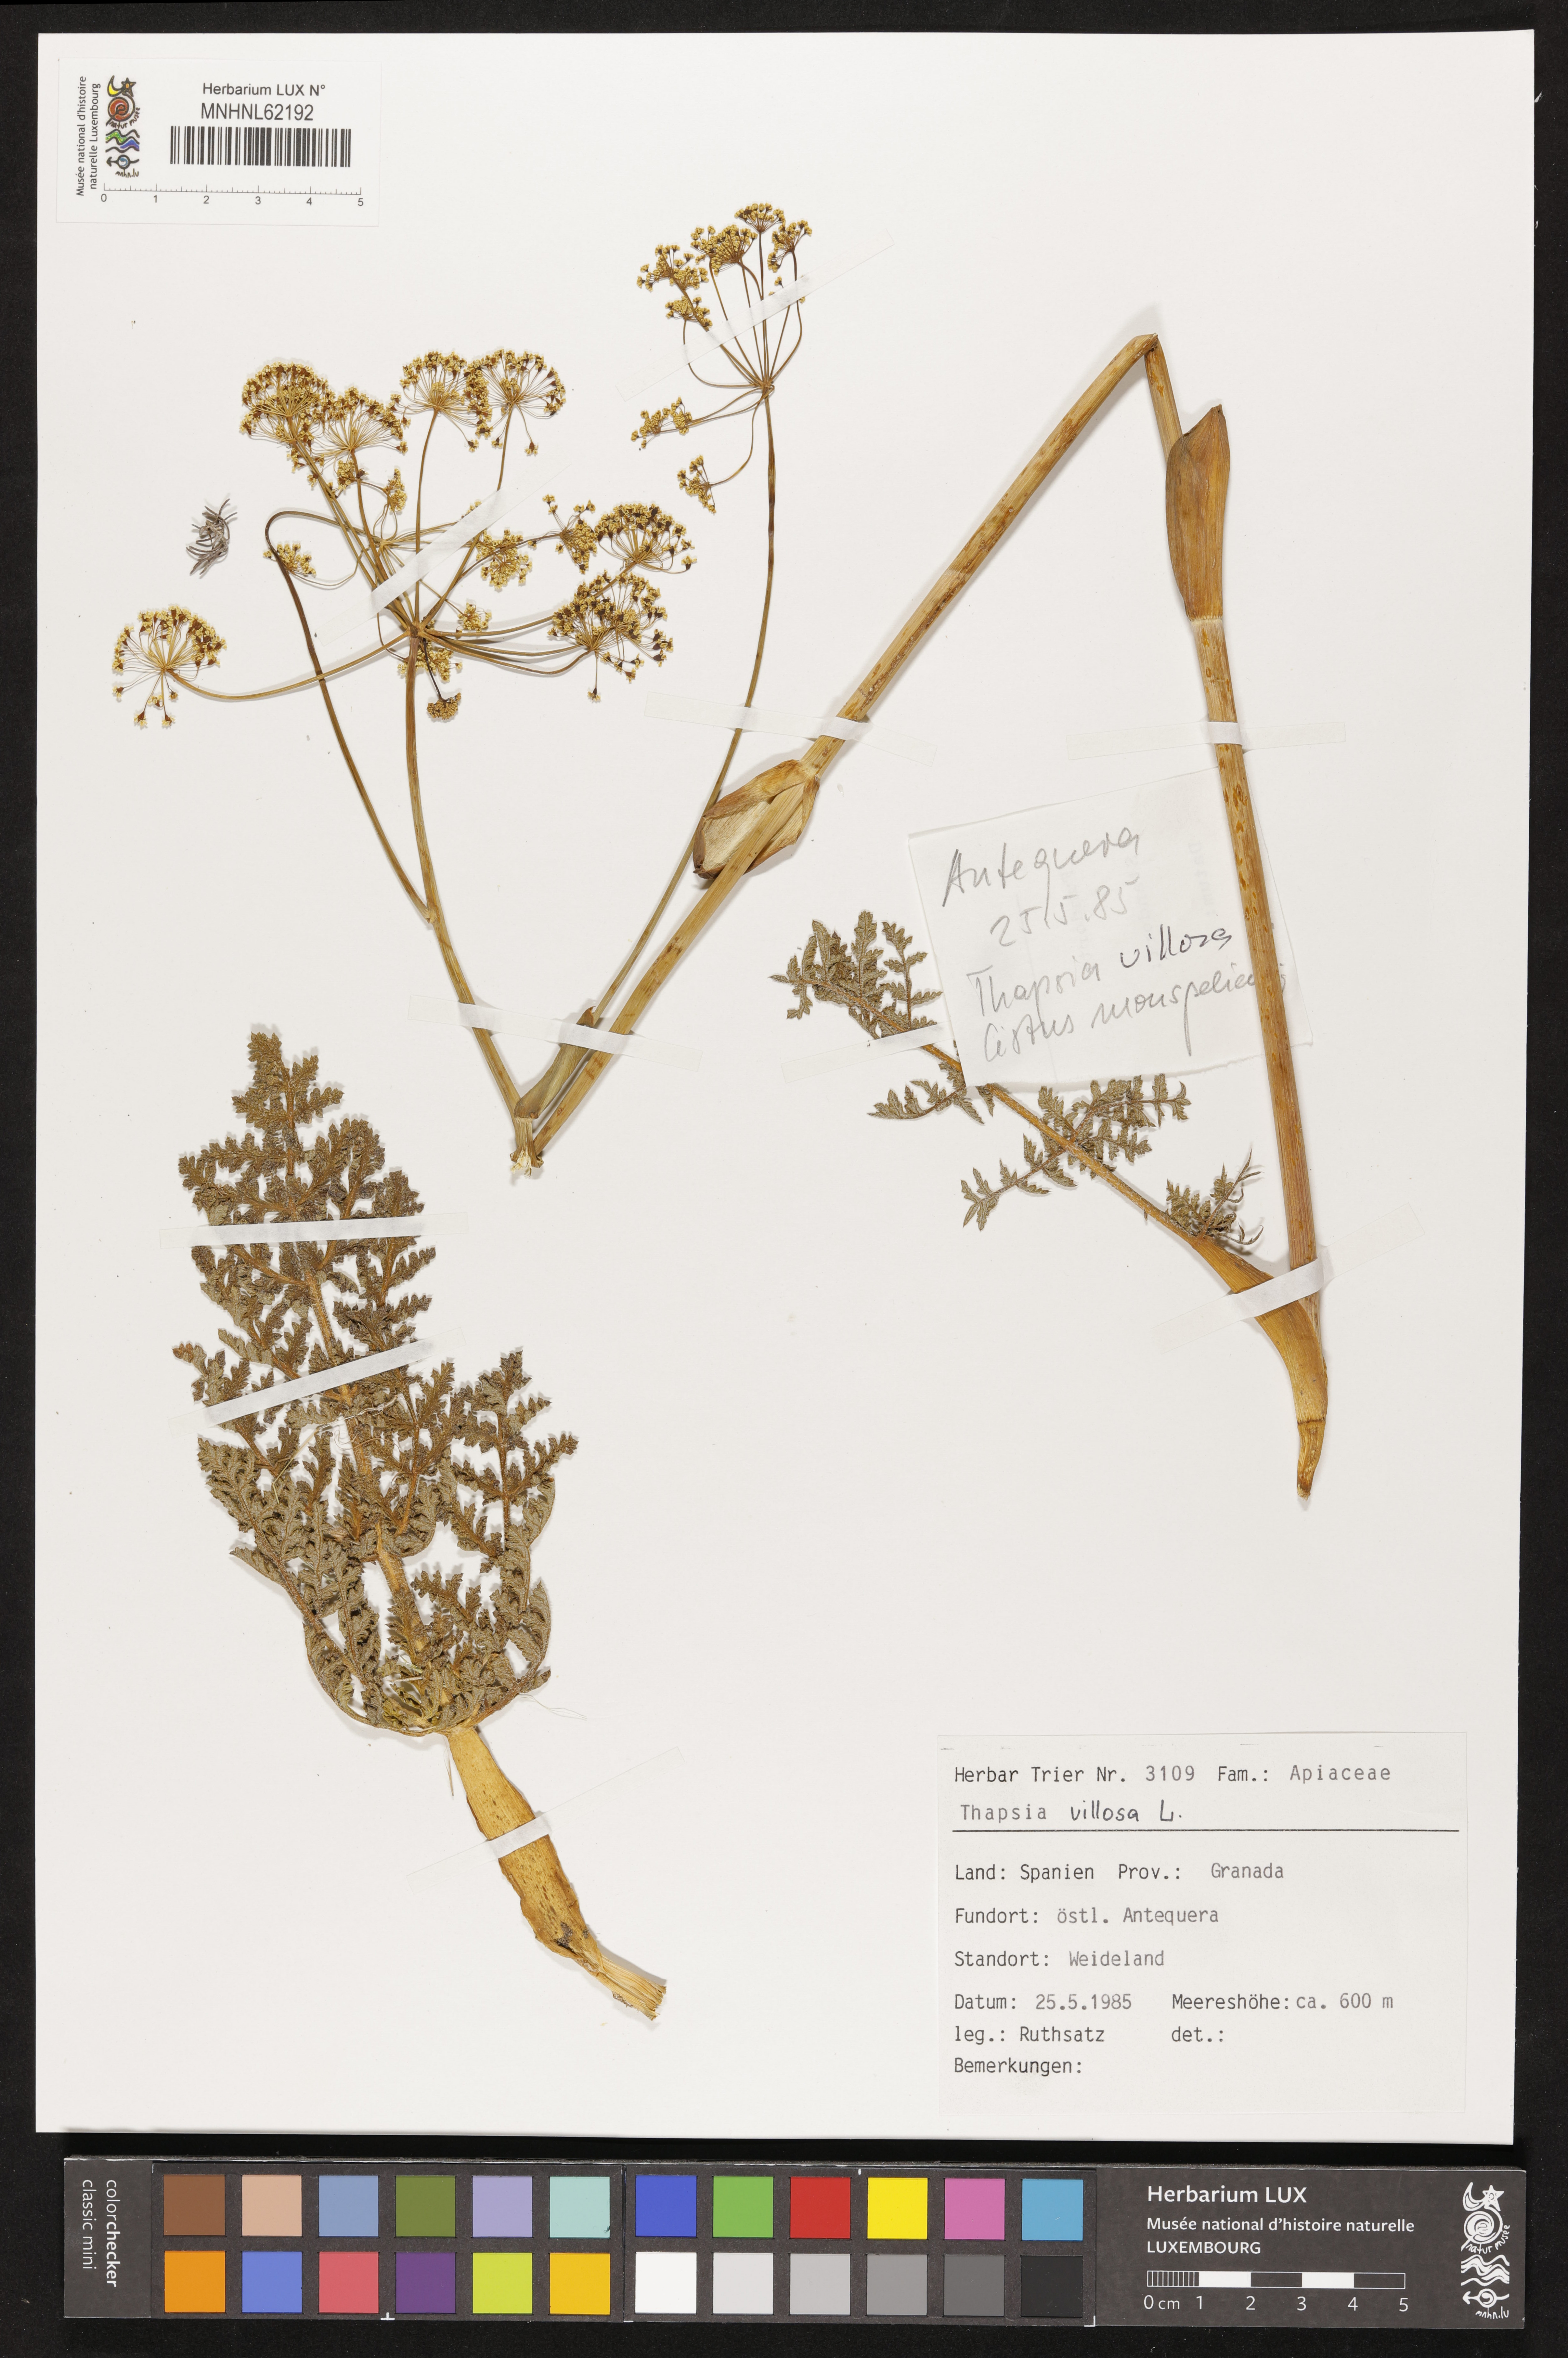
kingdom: Plantae
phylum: Tracheophyta
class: Magnoliopsida
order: Apiales
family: Apiaceae
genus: Thapsia
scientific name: Thapsia villosa
